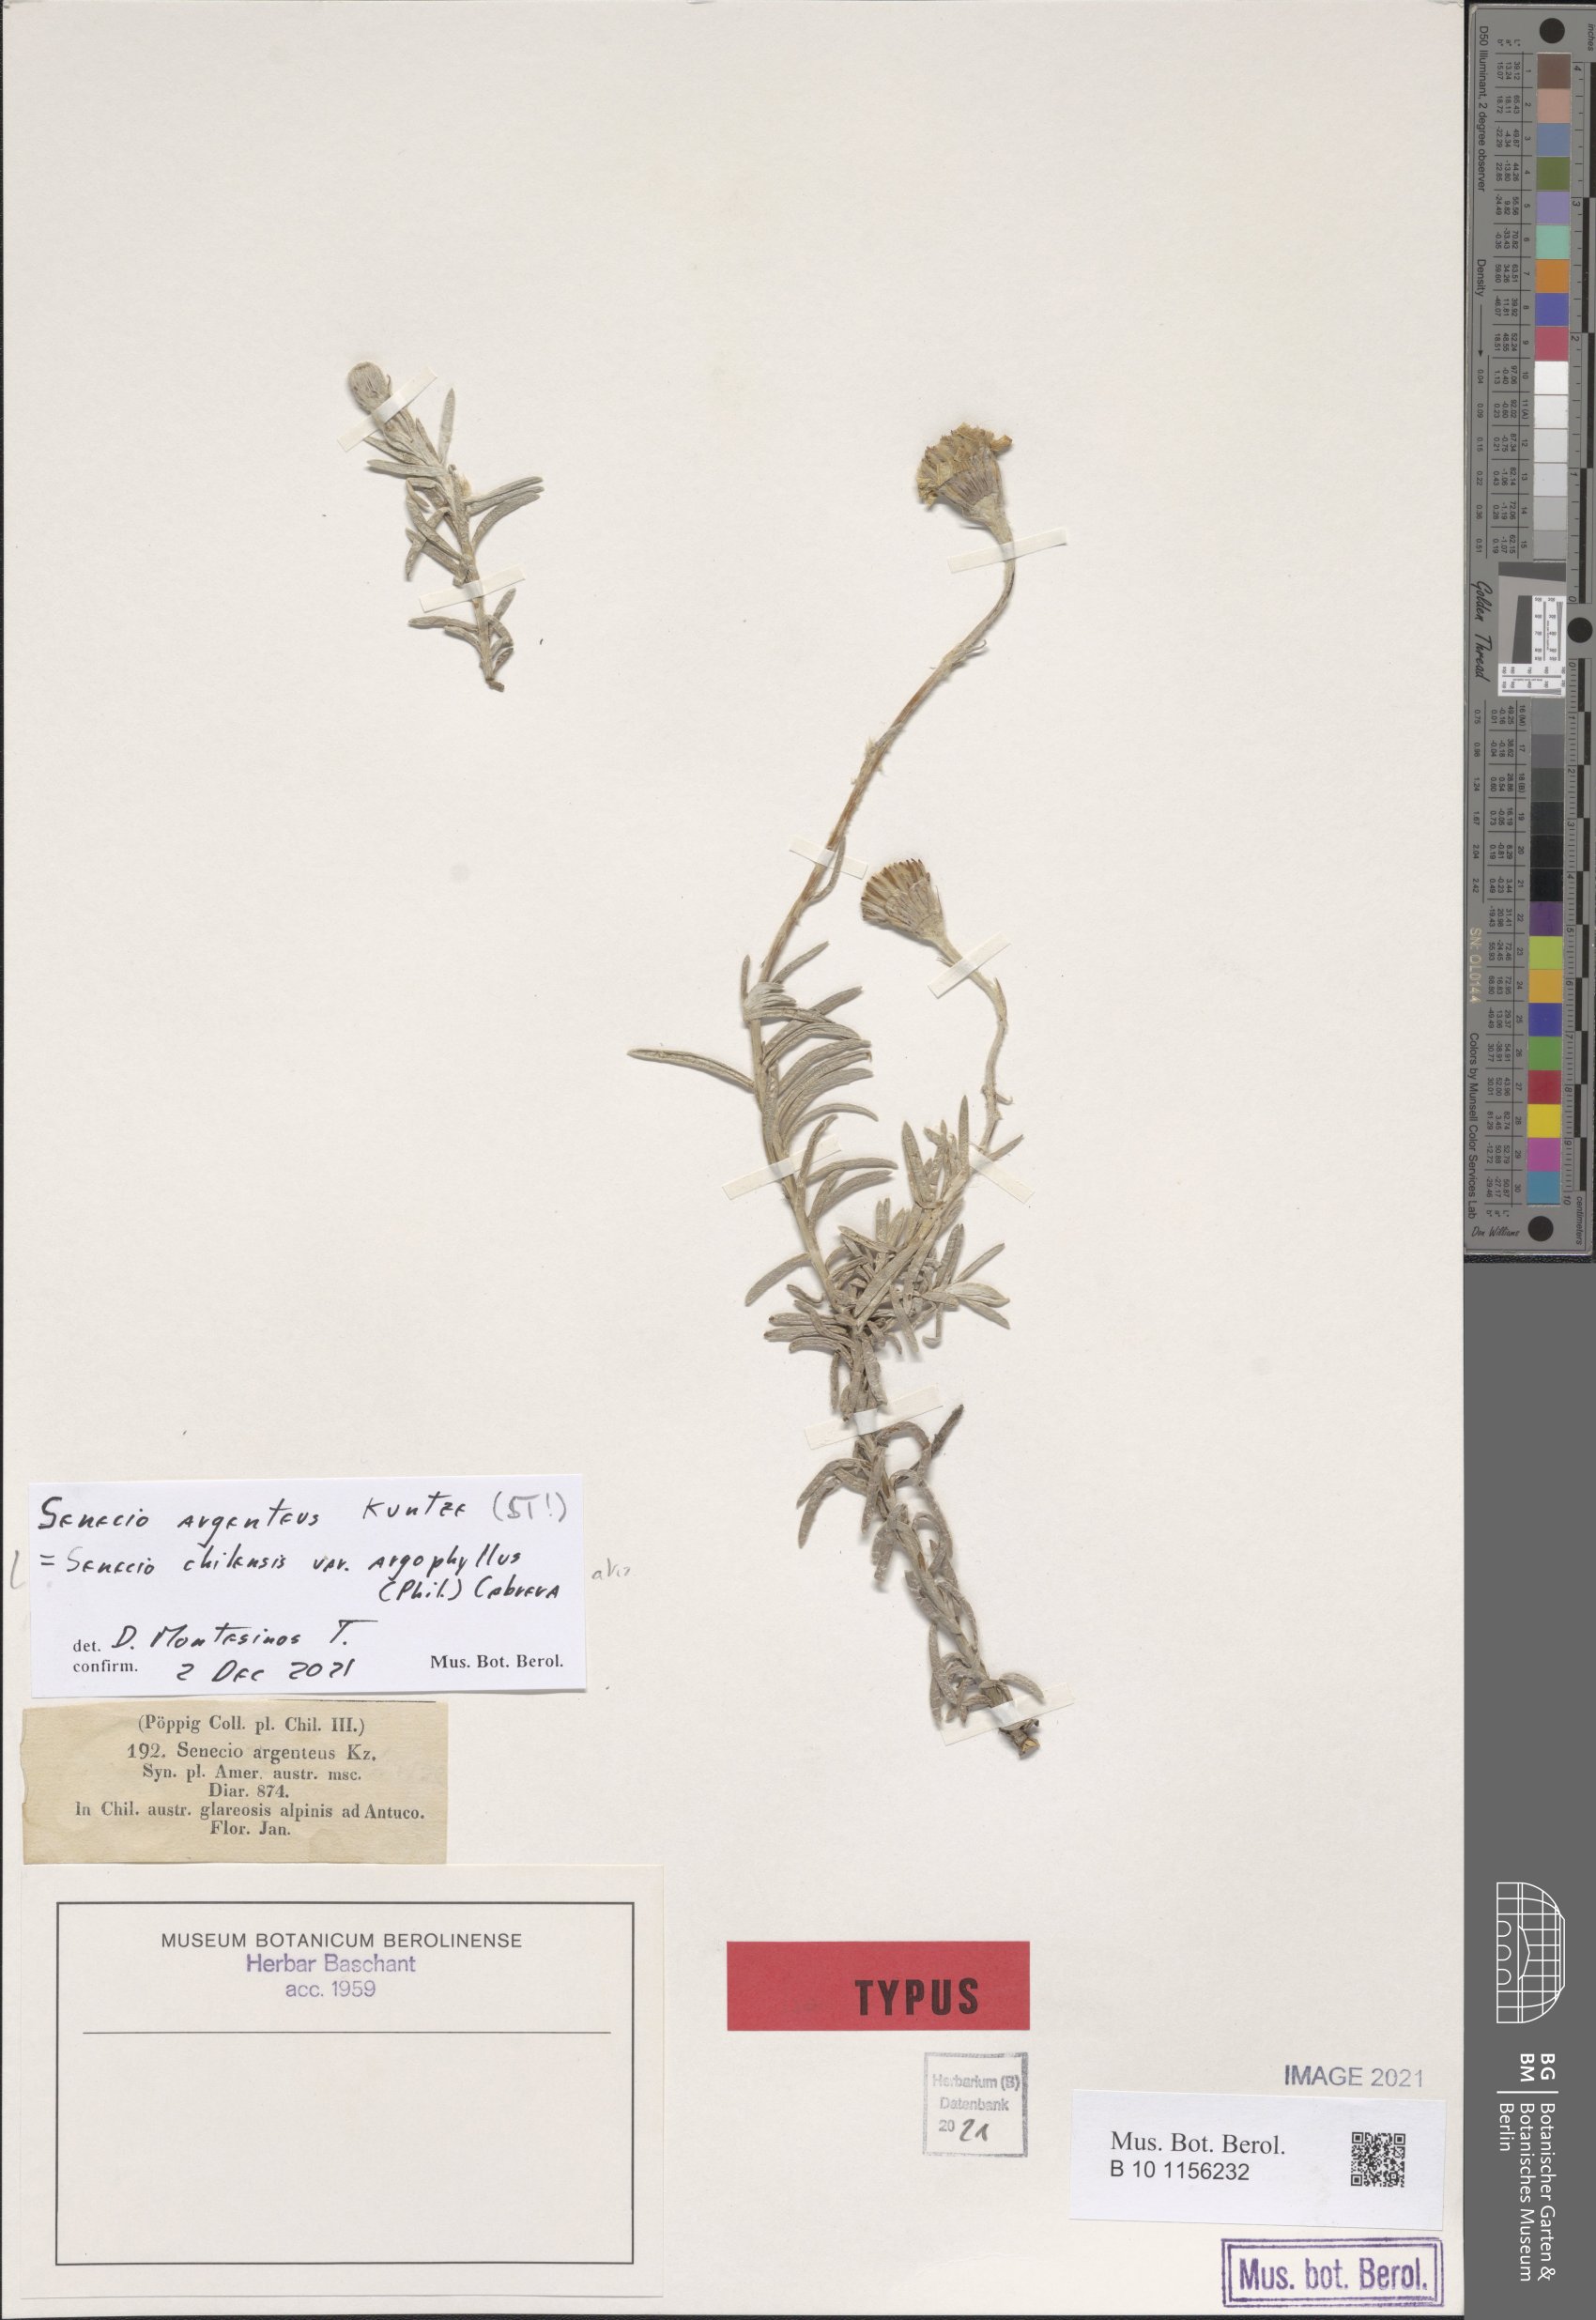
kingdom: Plantae
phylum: Tracheophyta
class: Magnoliopsida
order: Asterales
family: Asteraceae
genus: Senecio
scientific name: Senecio chilensis
